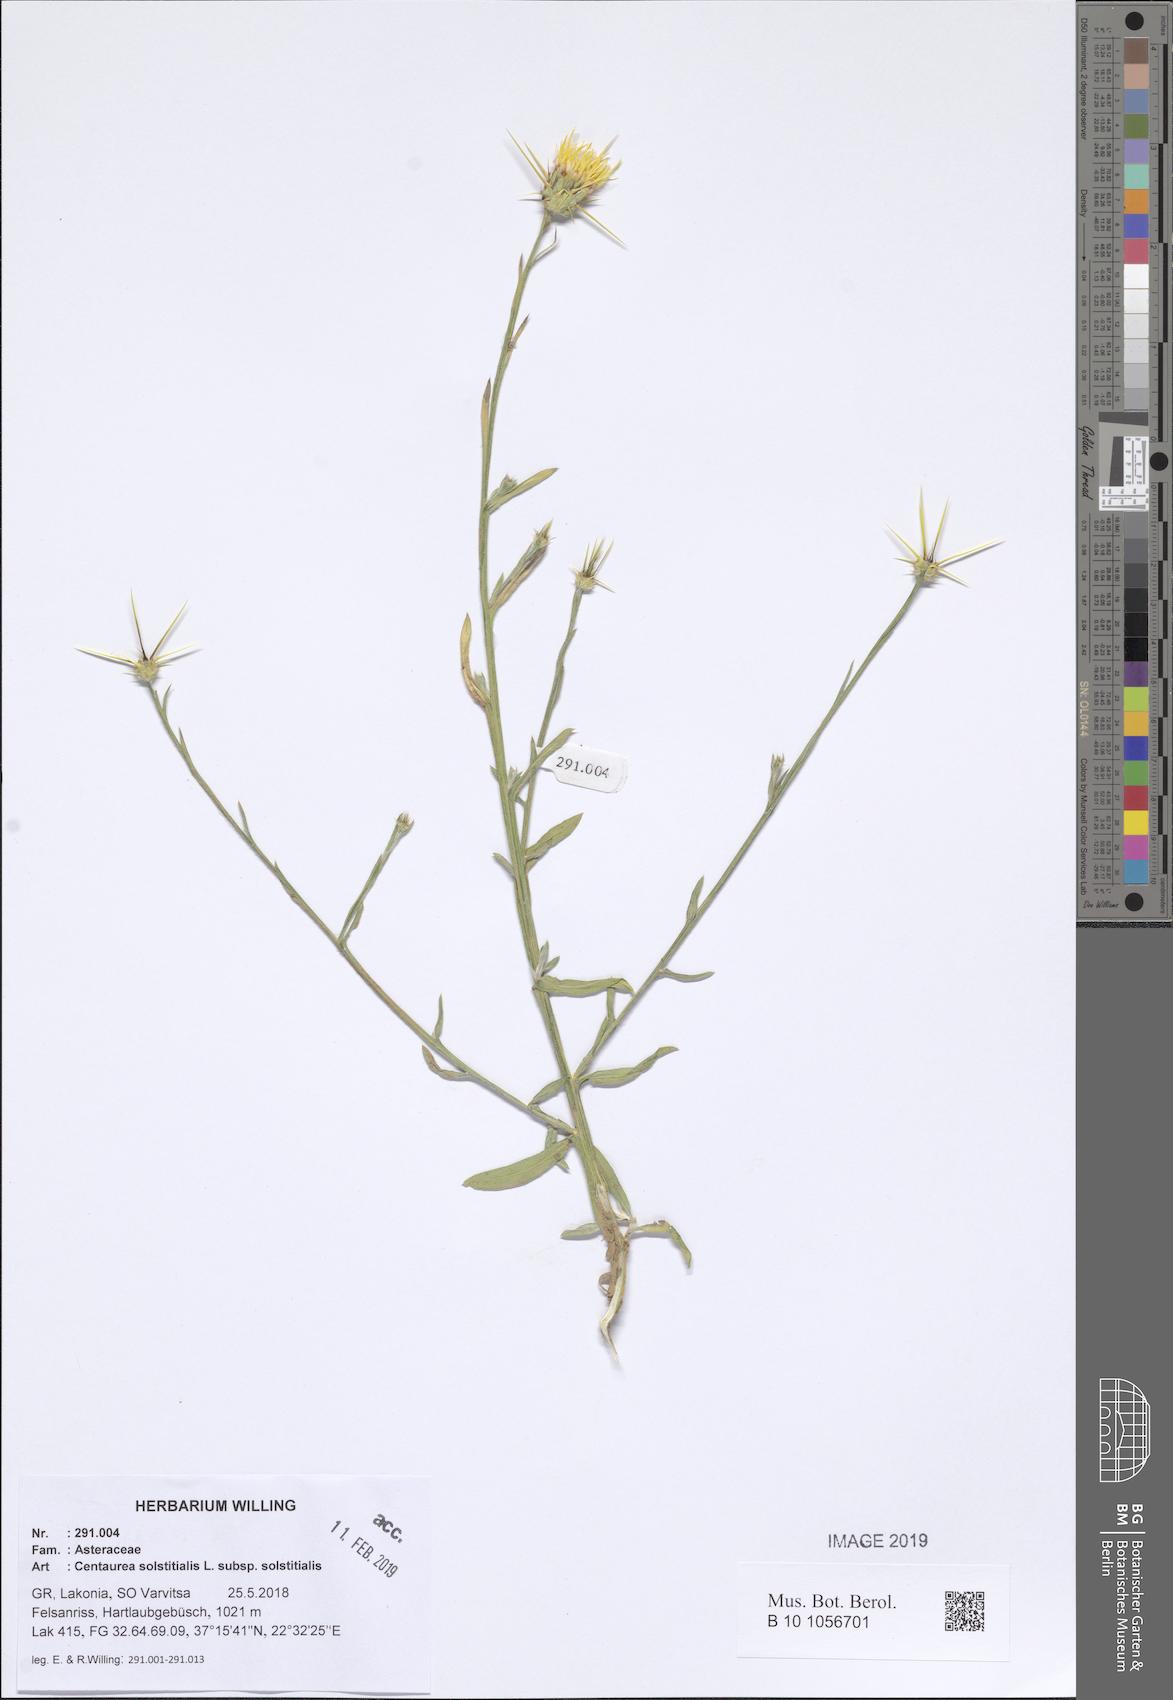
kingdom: Plantae
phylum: Tracheophyta
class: Magnoliopsida
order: Asterales
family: Asteraceae
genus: Centaurea
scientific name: Centaurea solstitialis
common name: Yellow star-thistle
